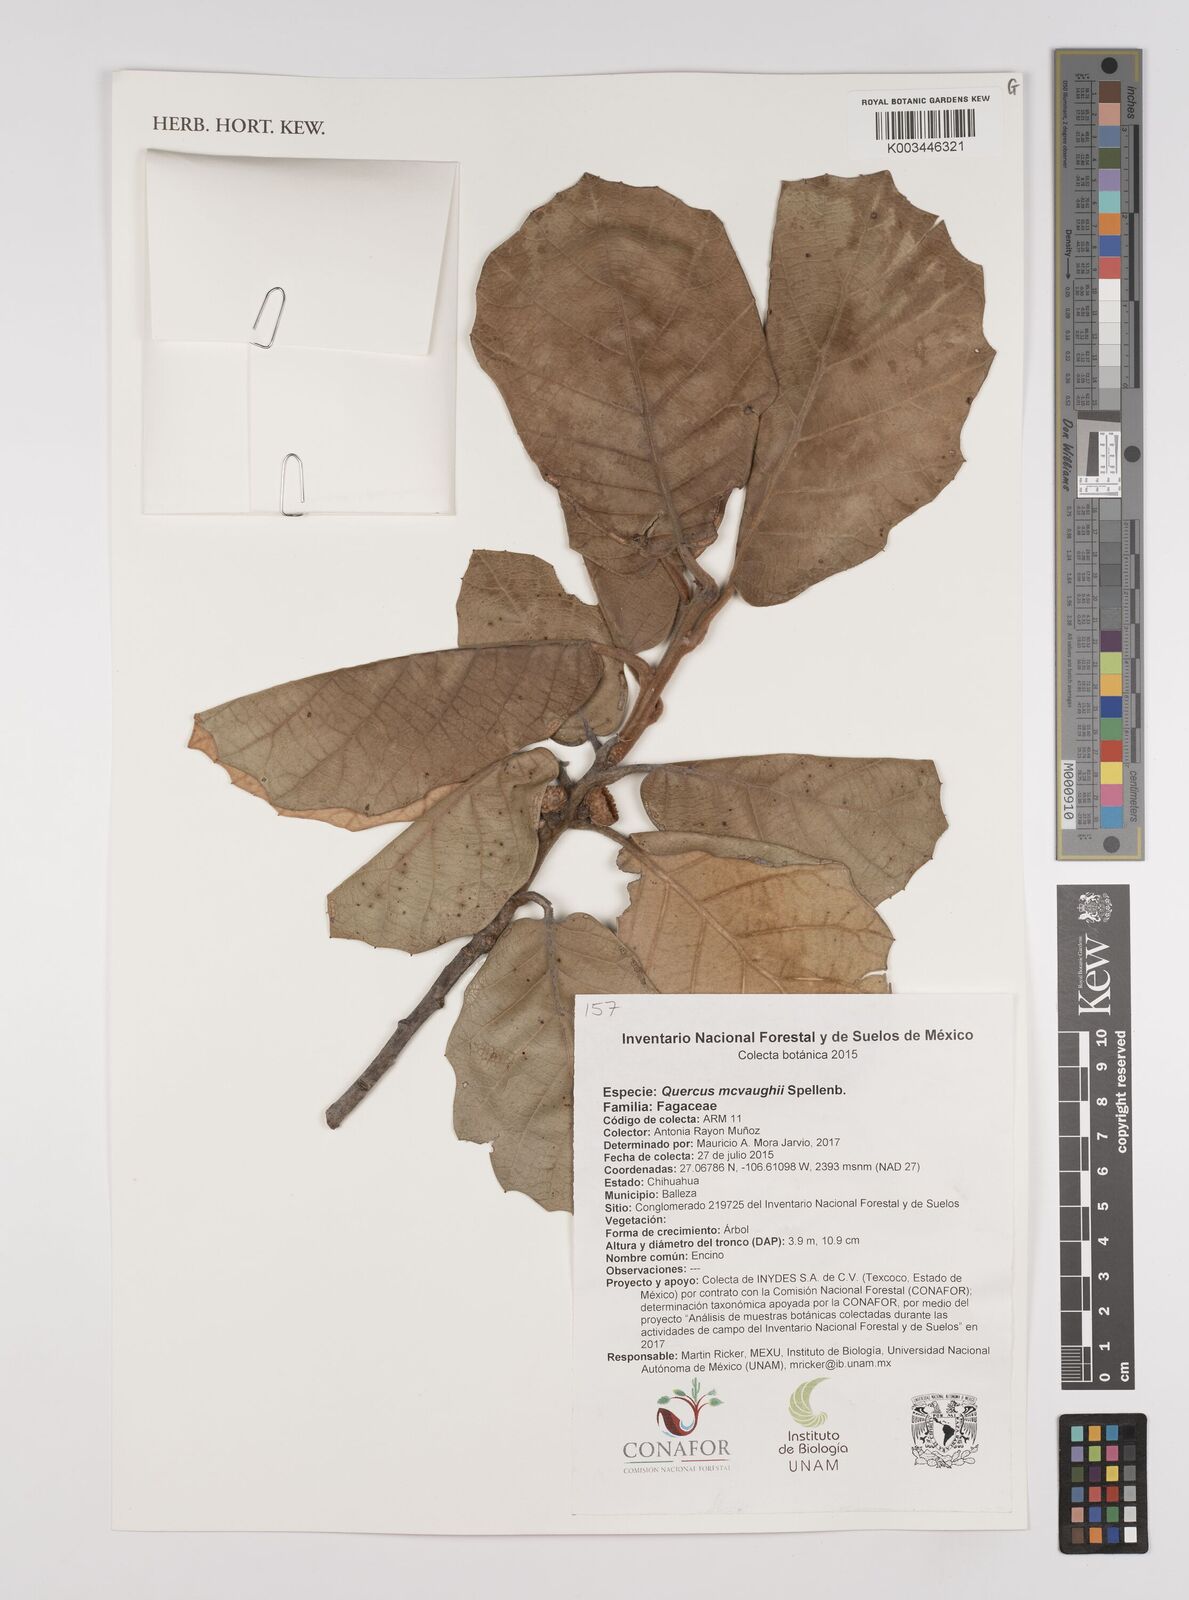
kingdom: Plantae
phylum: Tracheophyta
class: Magnoliopsida
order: Fagales
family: Fagaceae
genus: Quercus
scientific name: Quercus mcvaughii
